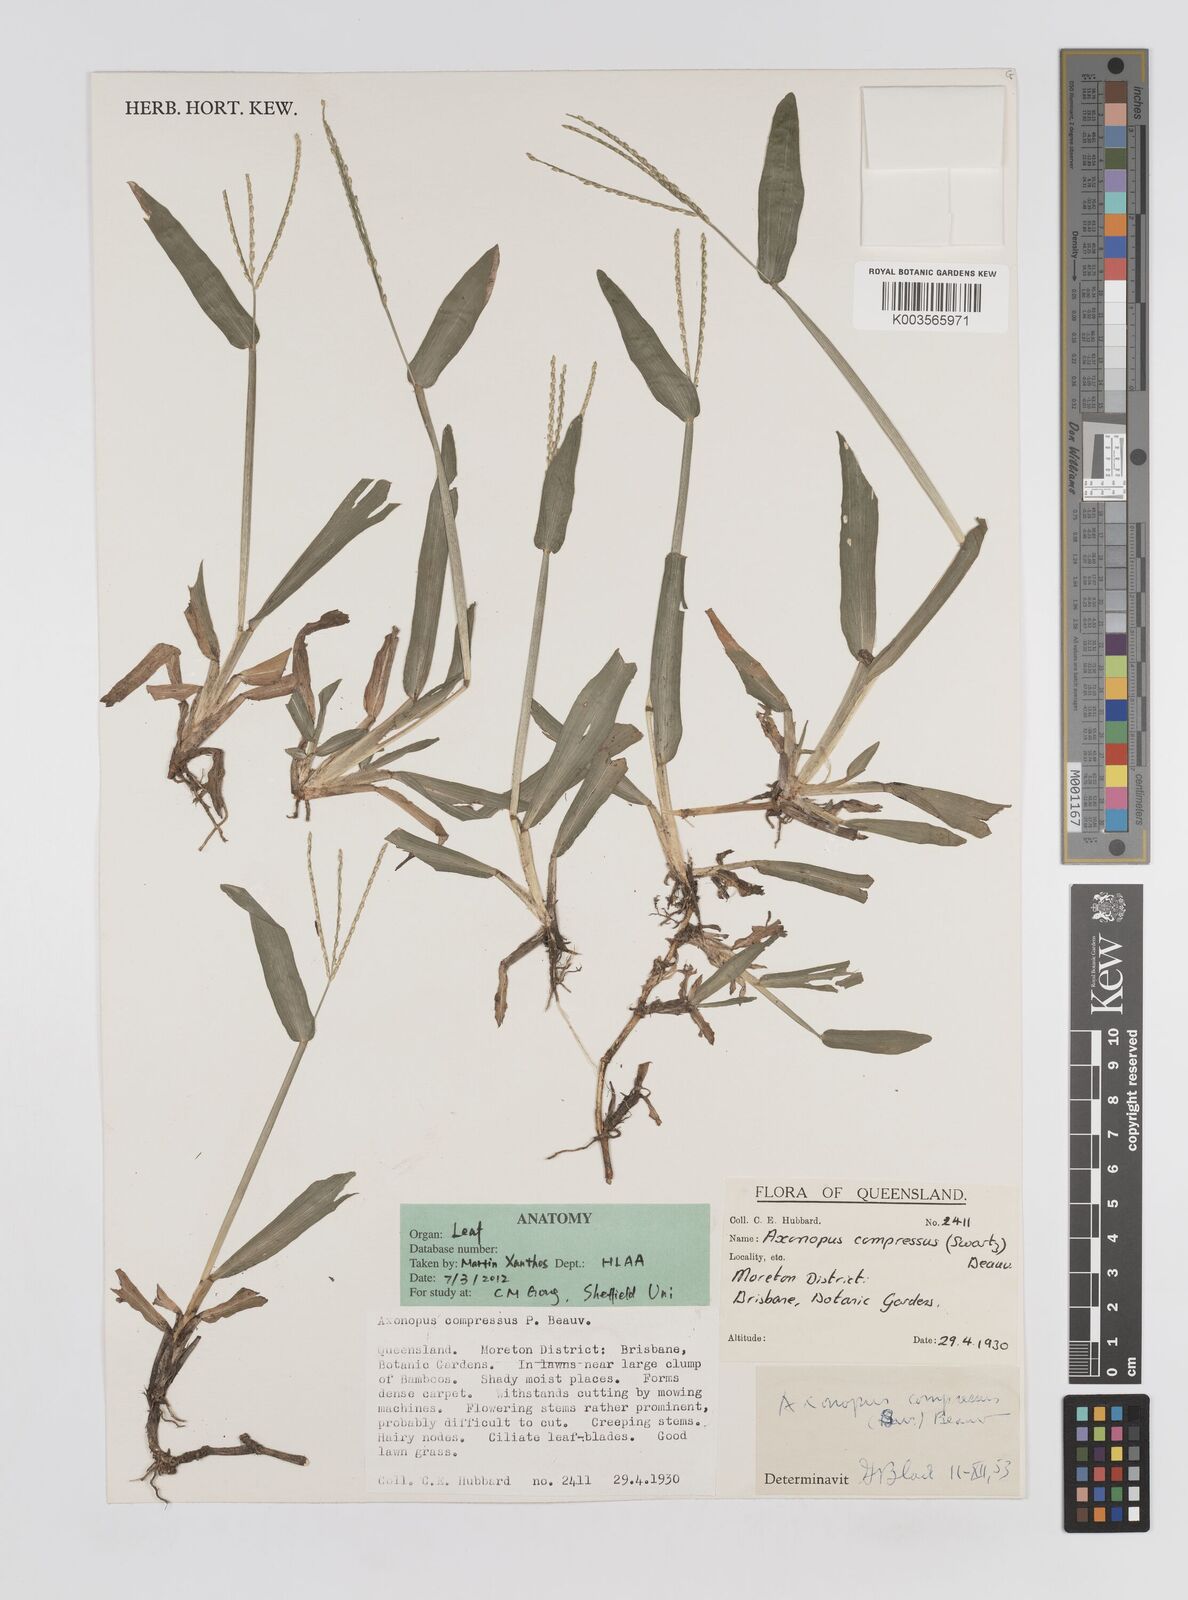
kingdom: Plantae
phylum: Tracheophyta
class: Liliopsida
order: Poales
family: Poaceae
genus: Axonopus
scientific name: Axonopus compressus
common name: American carpet grass
